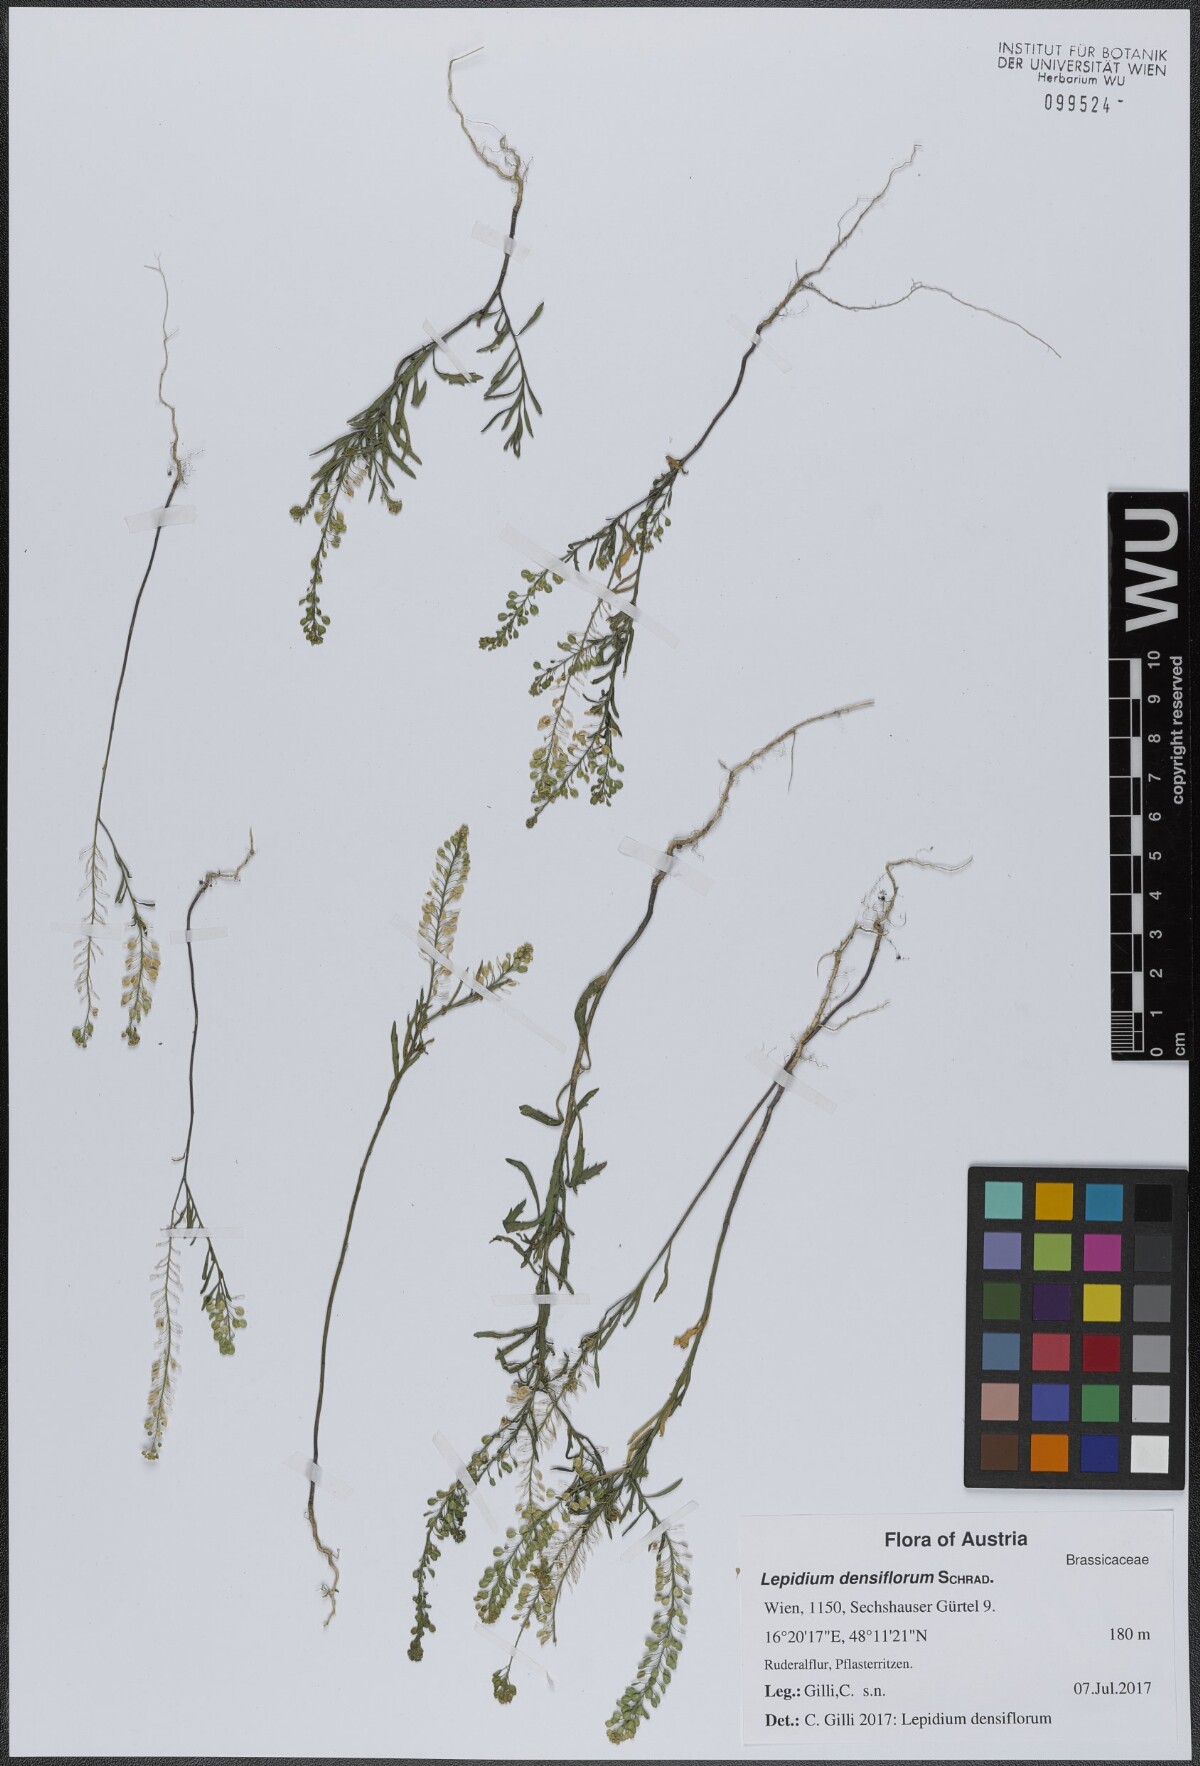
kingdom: Plantae
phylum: Tracheophyta
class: Magnoliopsida
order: Brassicales
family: Brassicaceae
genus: Lepidium
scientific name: Lepidium densiflorum
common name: Miner's pepperwort
